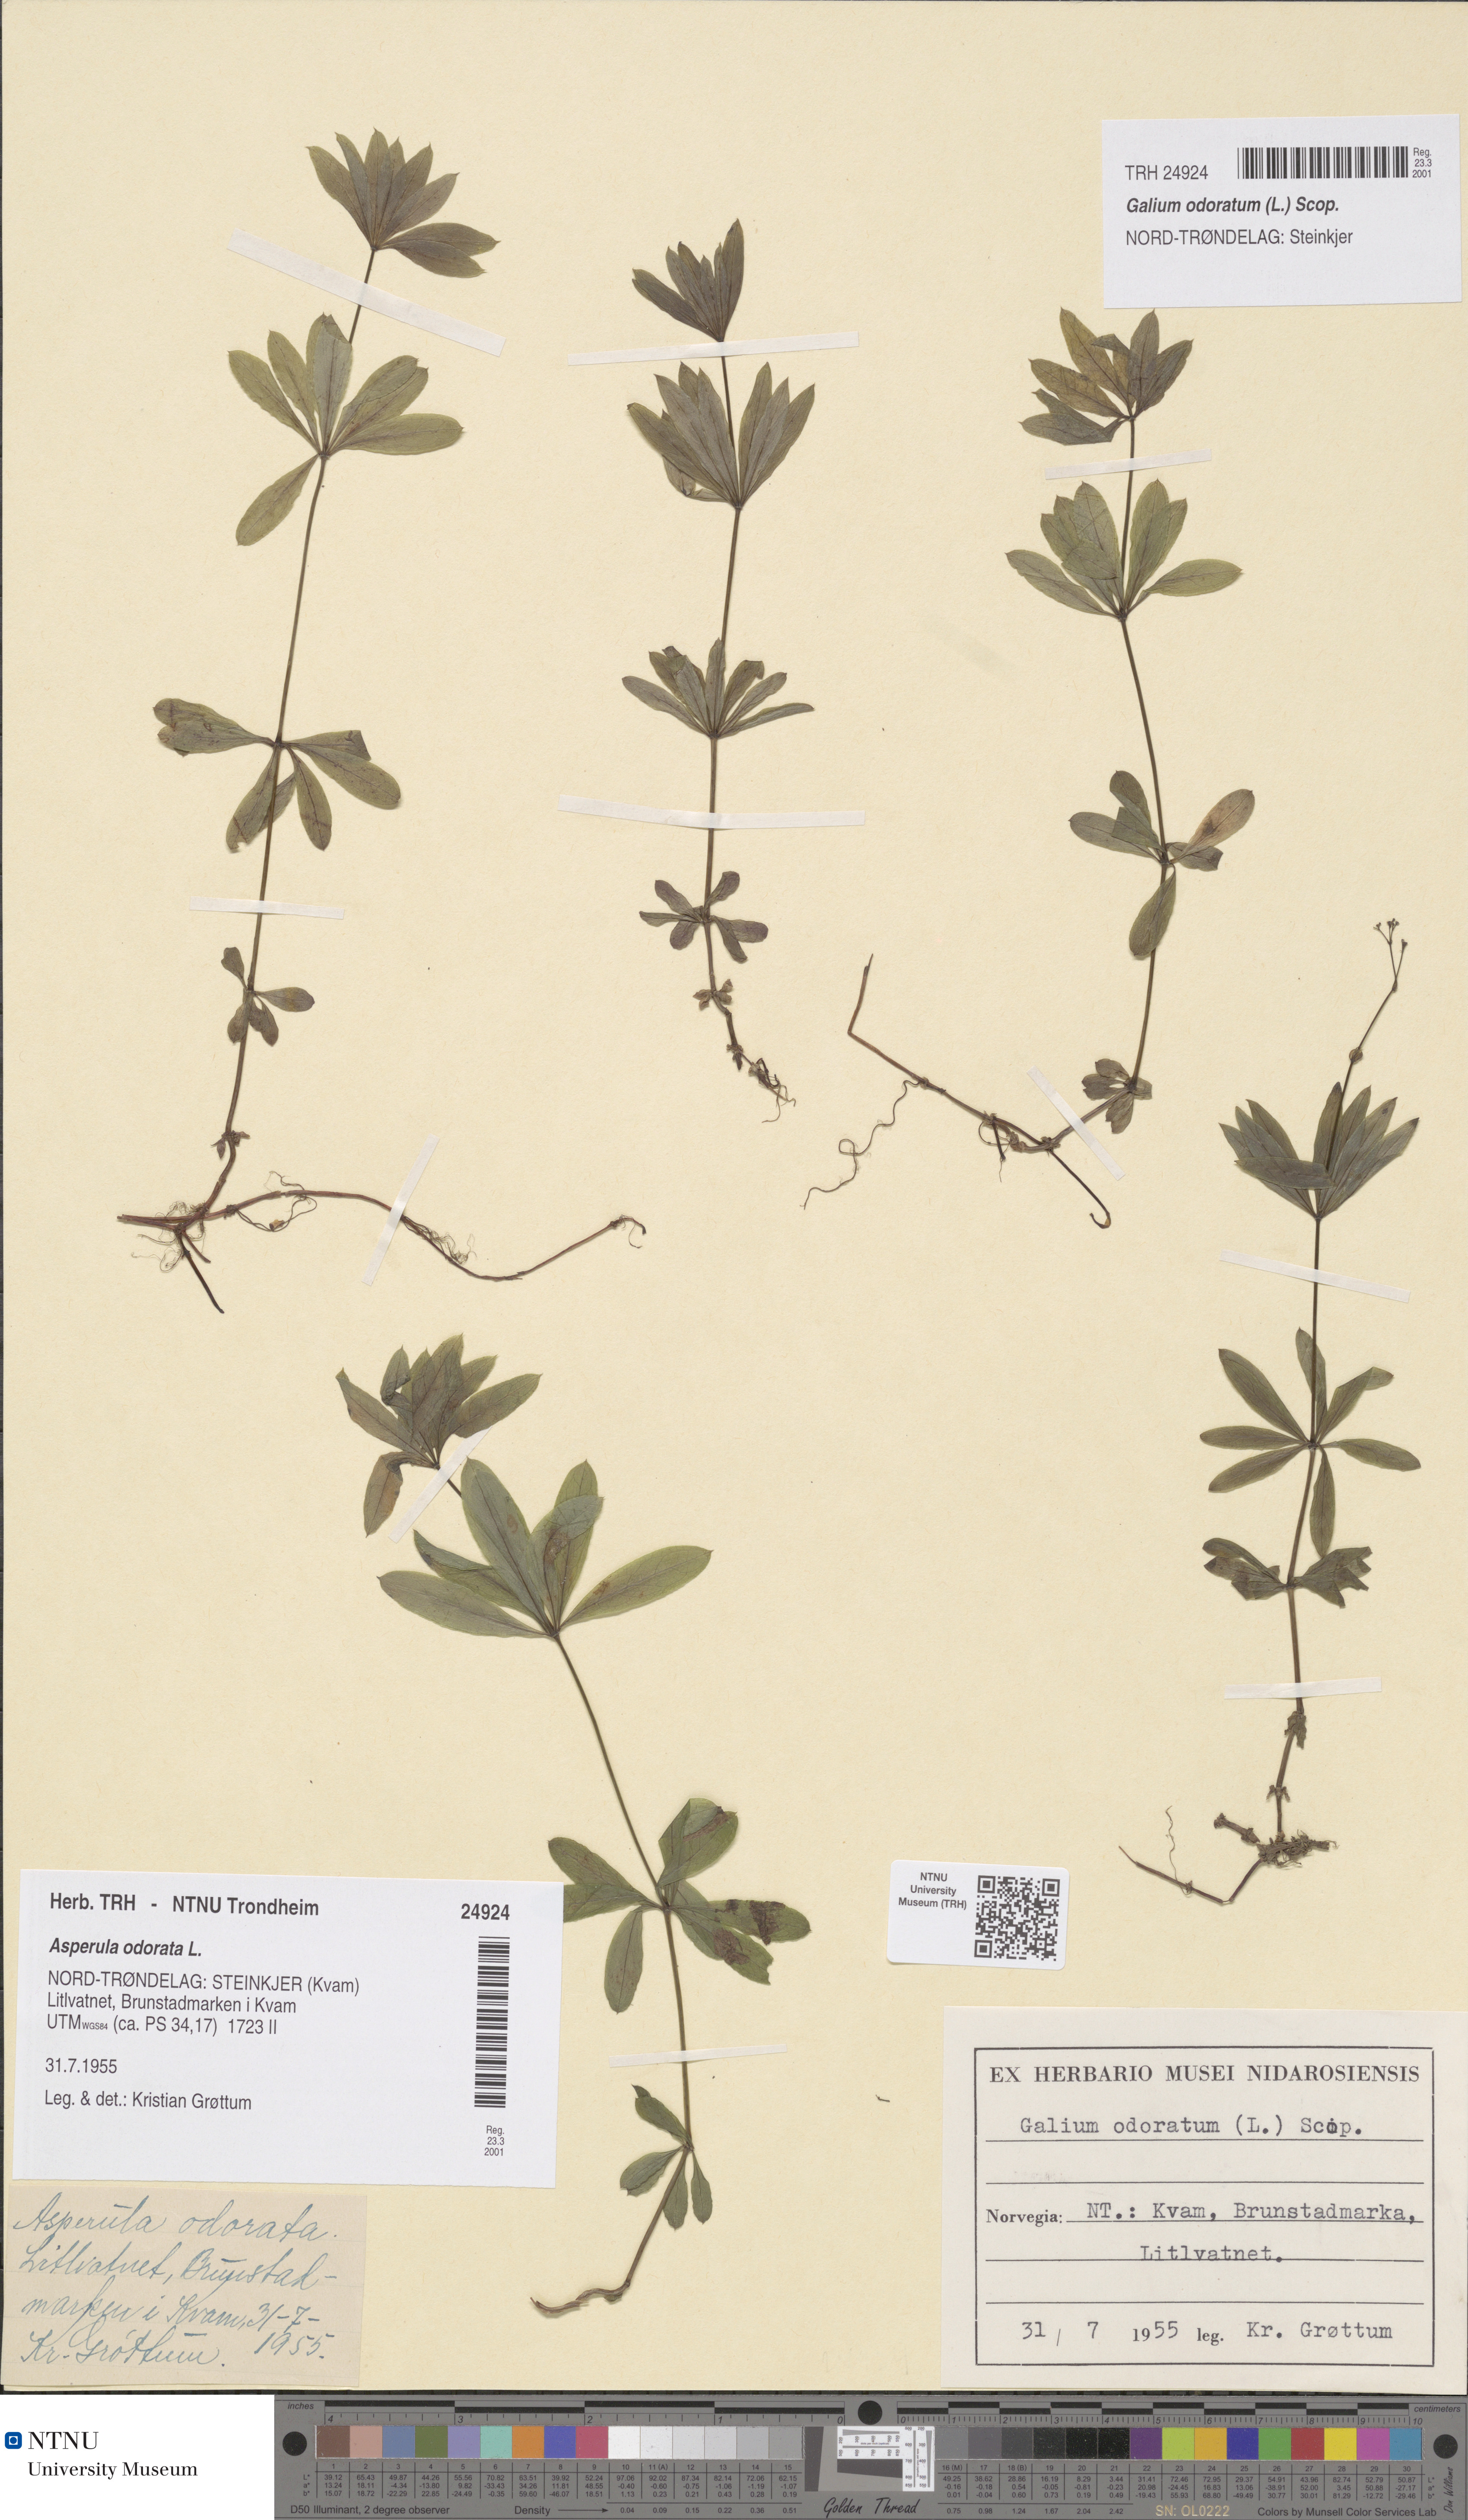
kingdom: Plantae
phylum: Tracheophyta
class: Magnoliopsida
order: Gentianales
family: Rubiaceae
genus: Galium
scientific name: Galium odoratum
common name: Sweet woodruff
